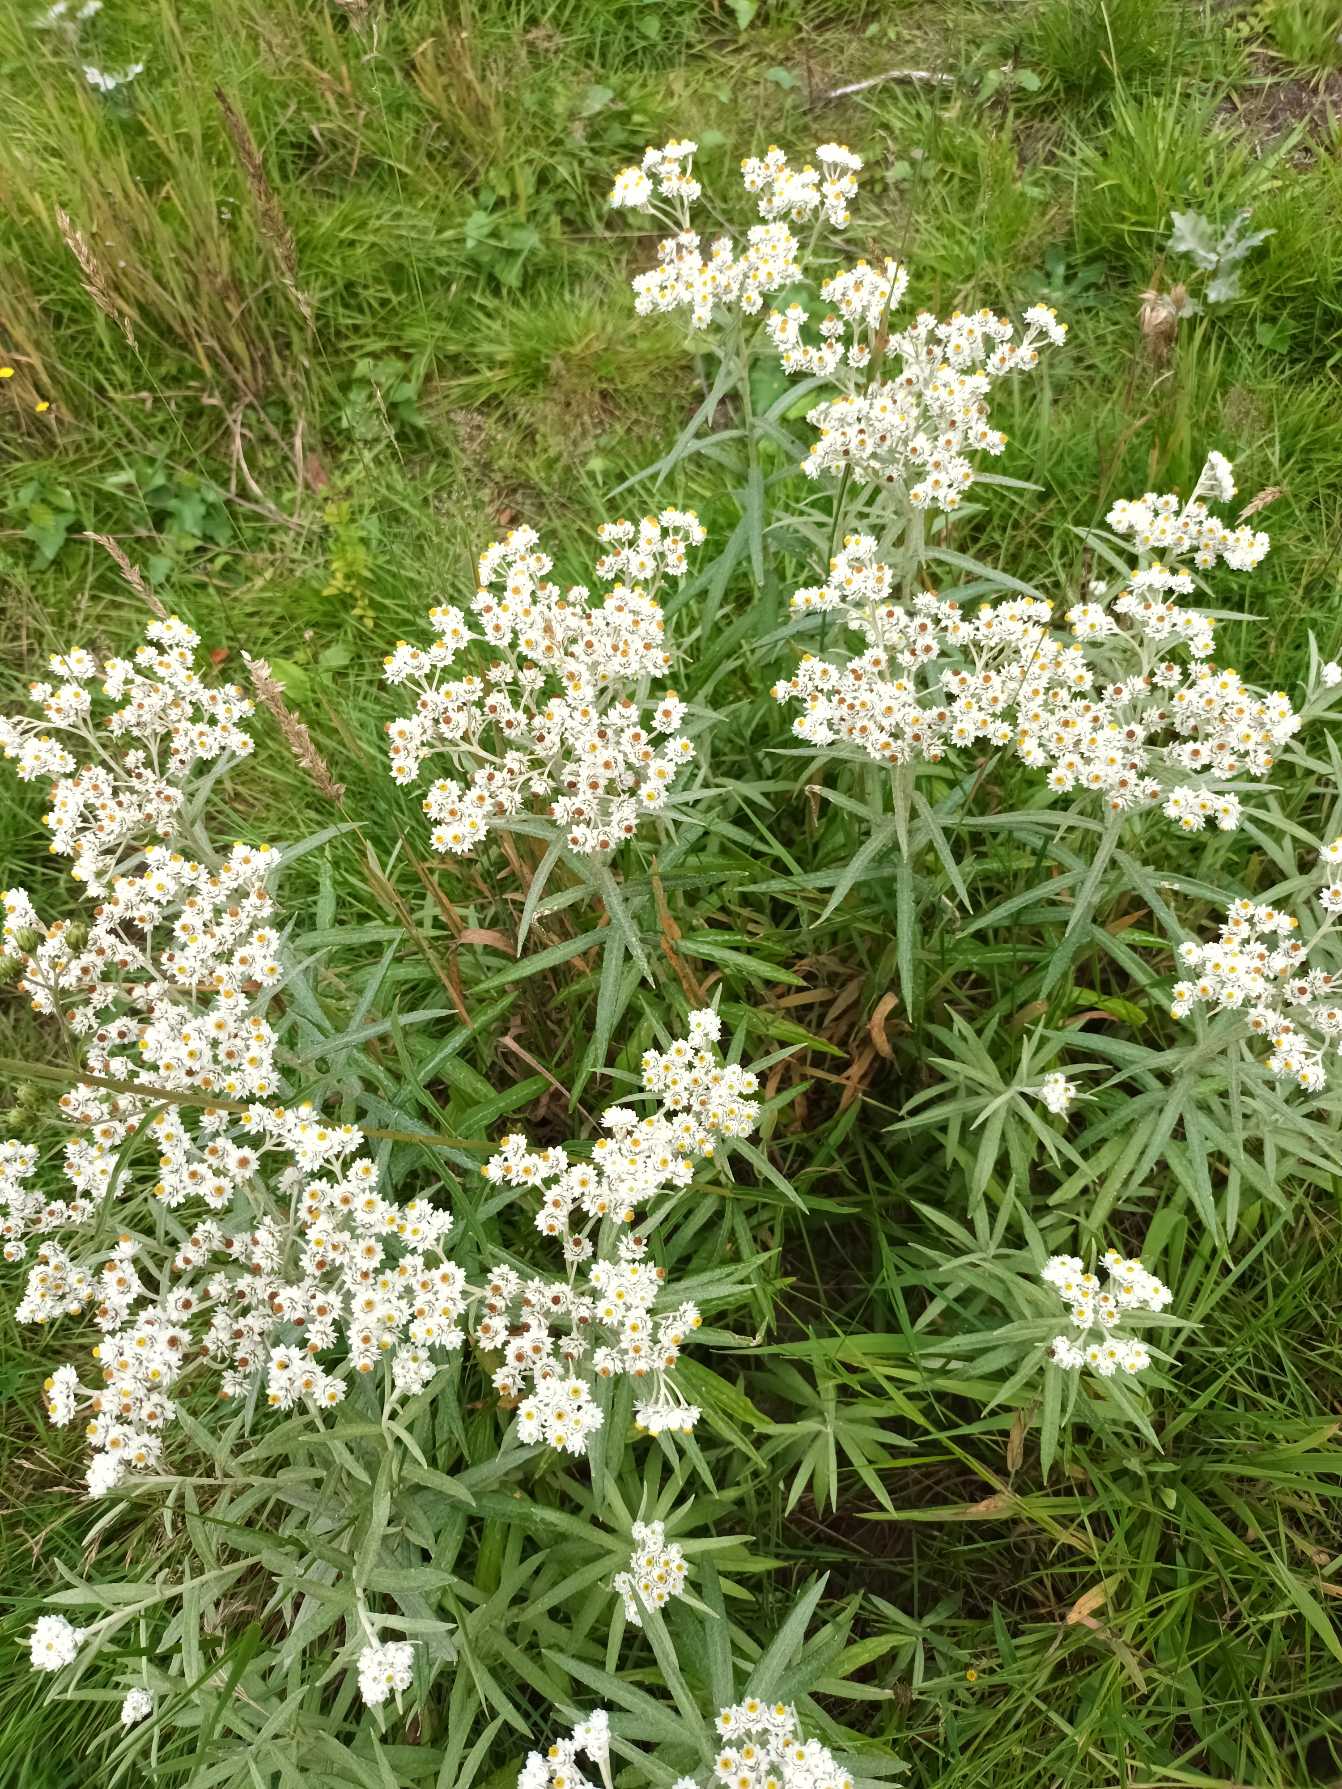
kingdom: Plantae
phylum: Tracheophyta
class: Magnoliopsida
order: Asterales
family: Asteraceae
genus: Anaphalis
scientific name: Anaphalis margaritacea
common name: Perlekurv
